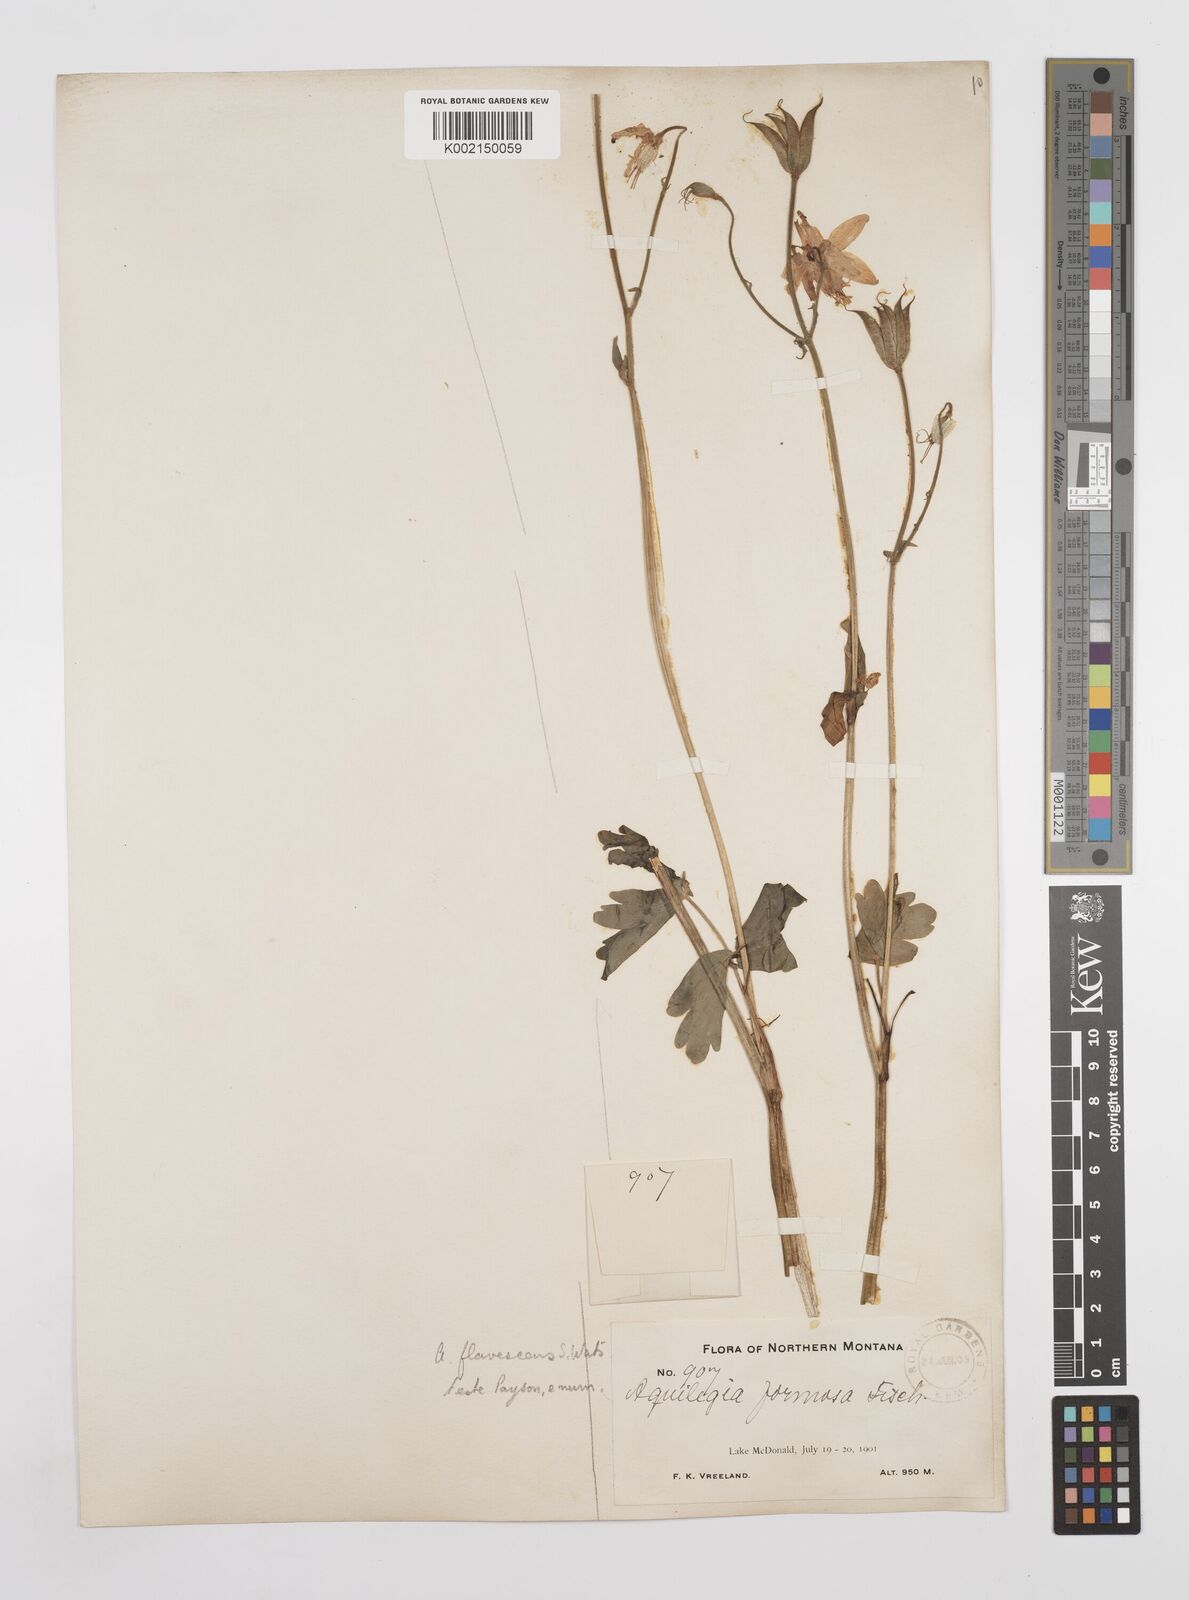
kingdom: Plantae
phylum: Tracheophyta
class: Magnoliopsida
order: Ranunculales
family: Ranunculaceae
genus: Aquilegia
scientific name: Aquilegia flavescens
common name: Yellow columbine
